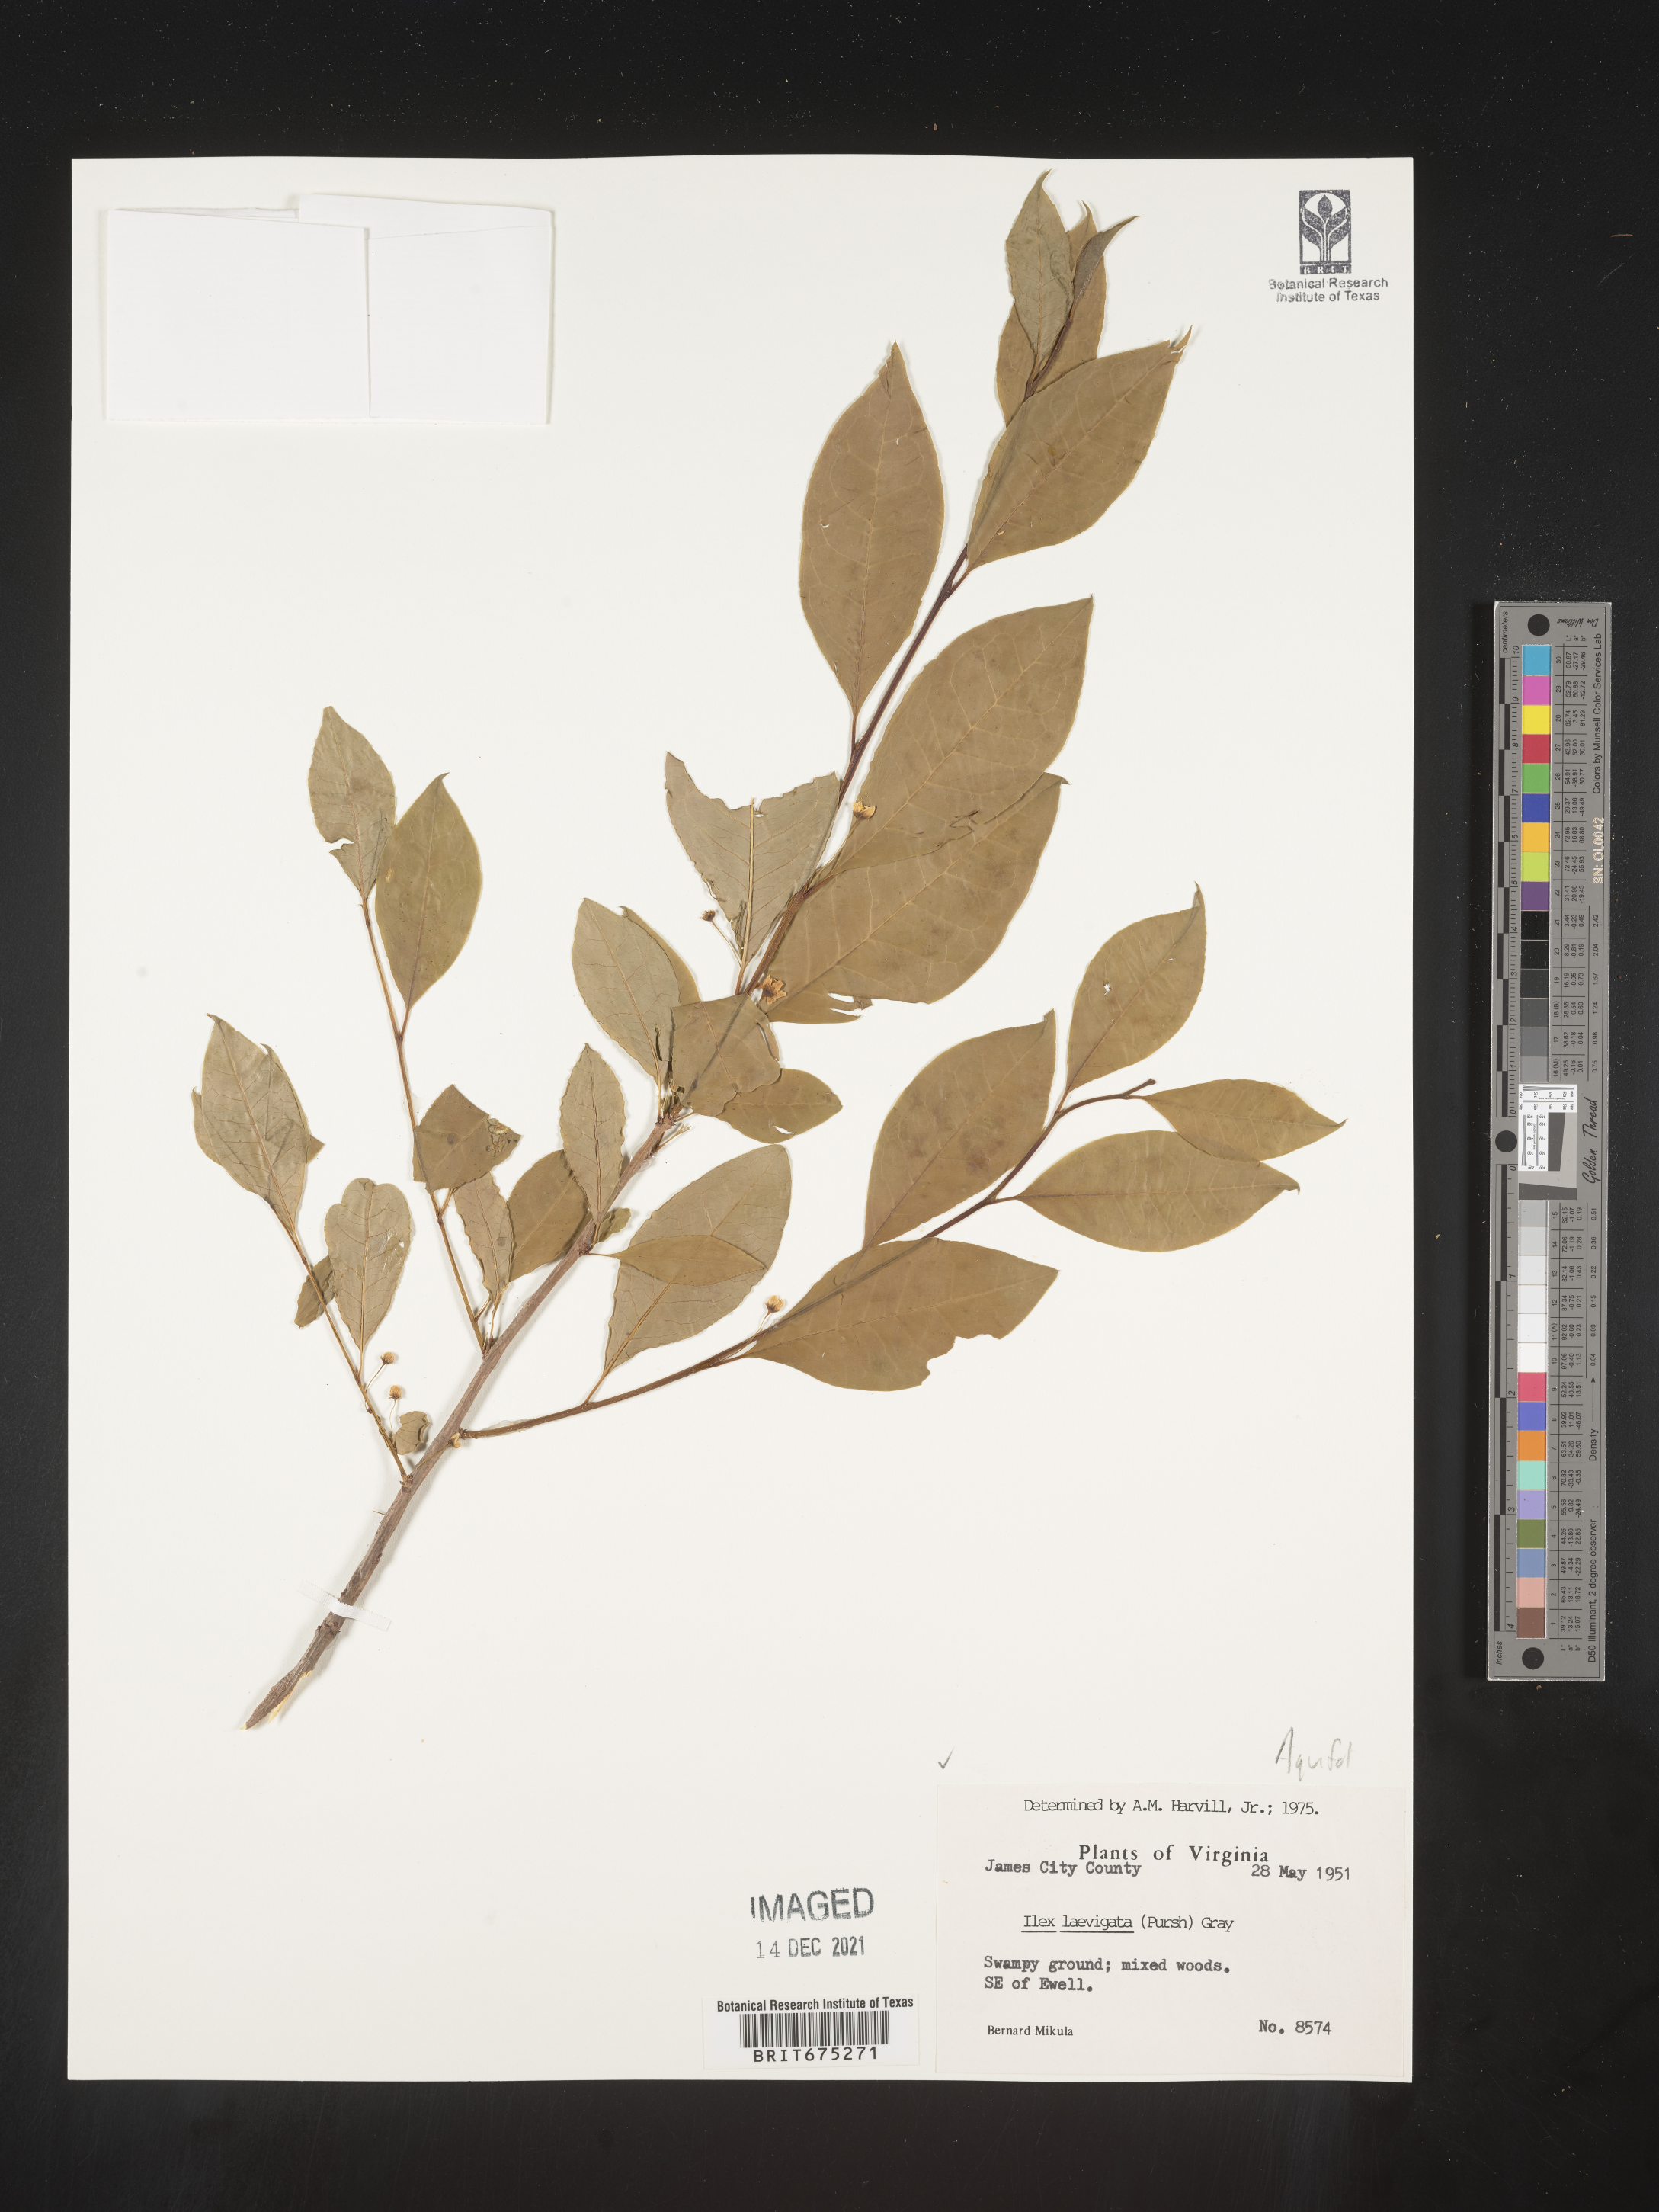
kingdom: Plantae
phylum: Tracheophyta
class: Magnoliopsida
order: Aquifoliales
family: Aquifoliaceae
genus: Ilex
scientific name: Ilex laevigata
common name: Smooth winterberry
